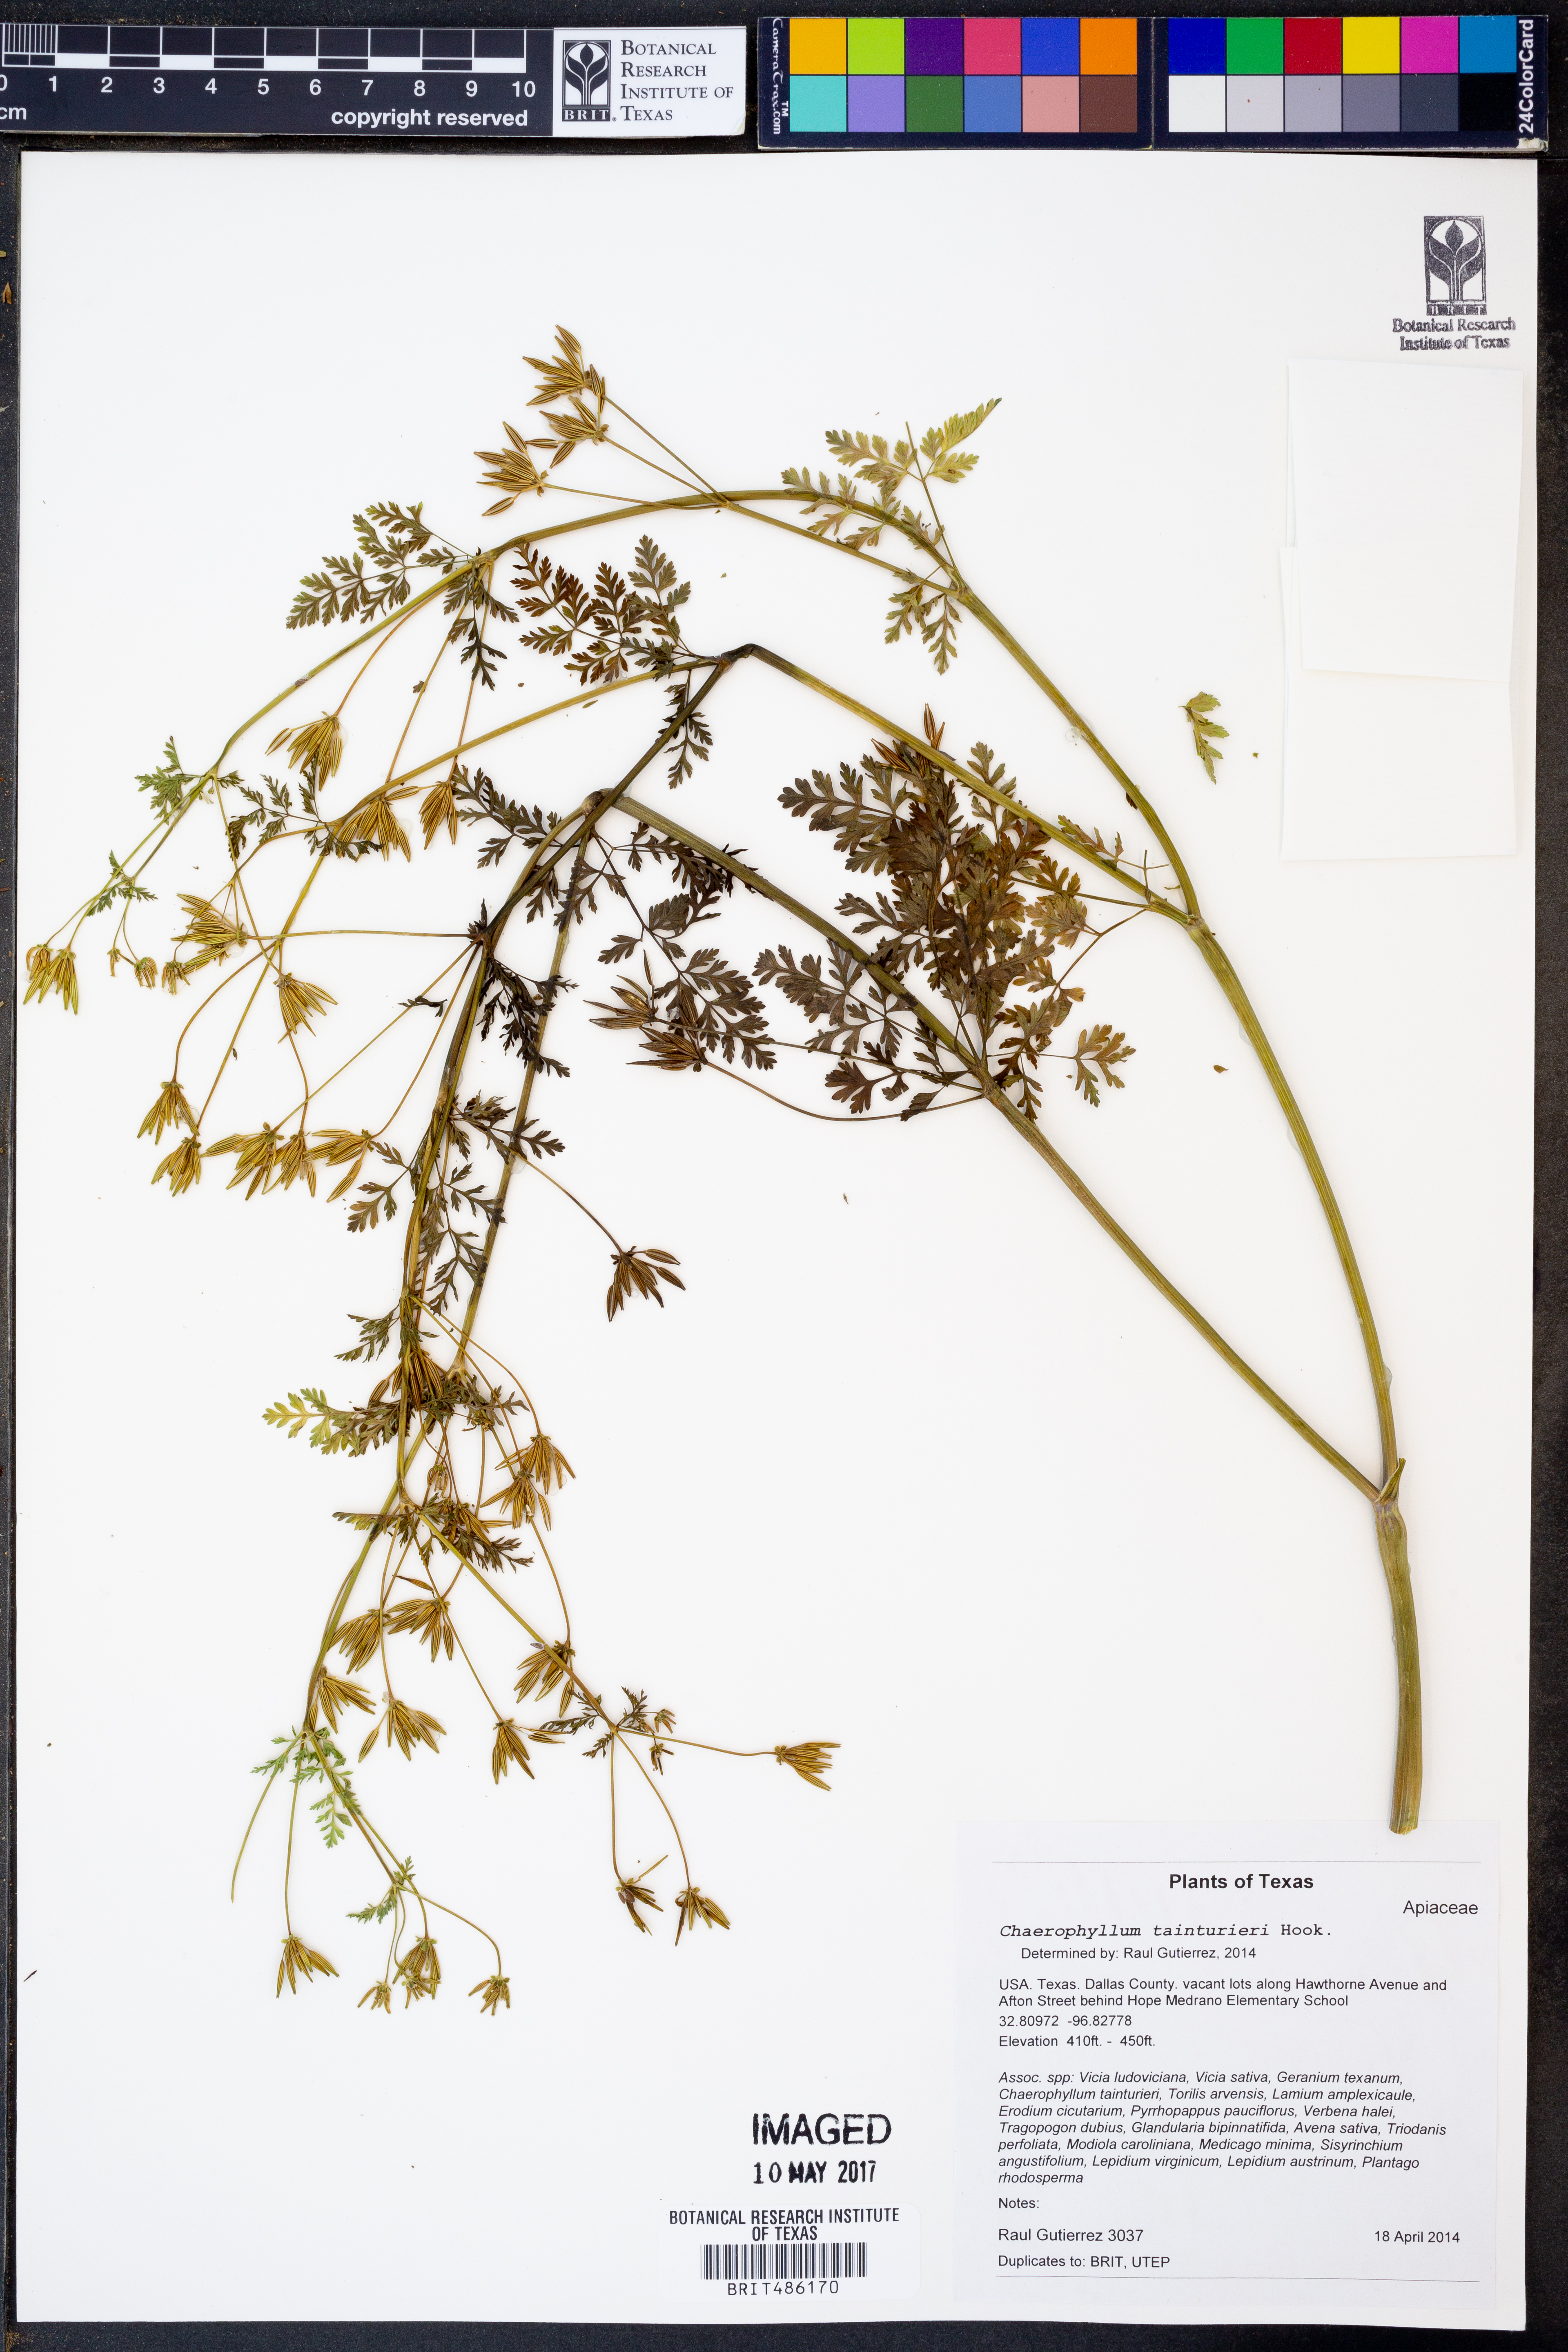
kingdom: Plantae
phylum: Tracheophyta
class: Magnoliopsida
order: Apiales
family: Apiaceae
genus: Chaerophyllum
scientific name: Chaerophyllum tainturieri
